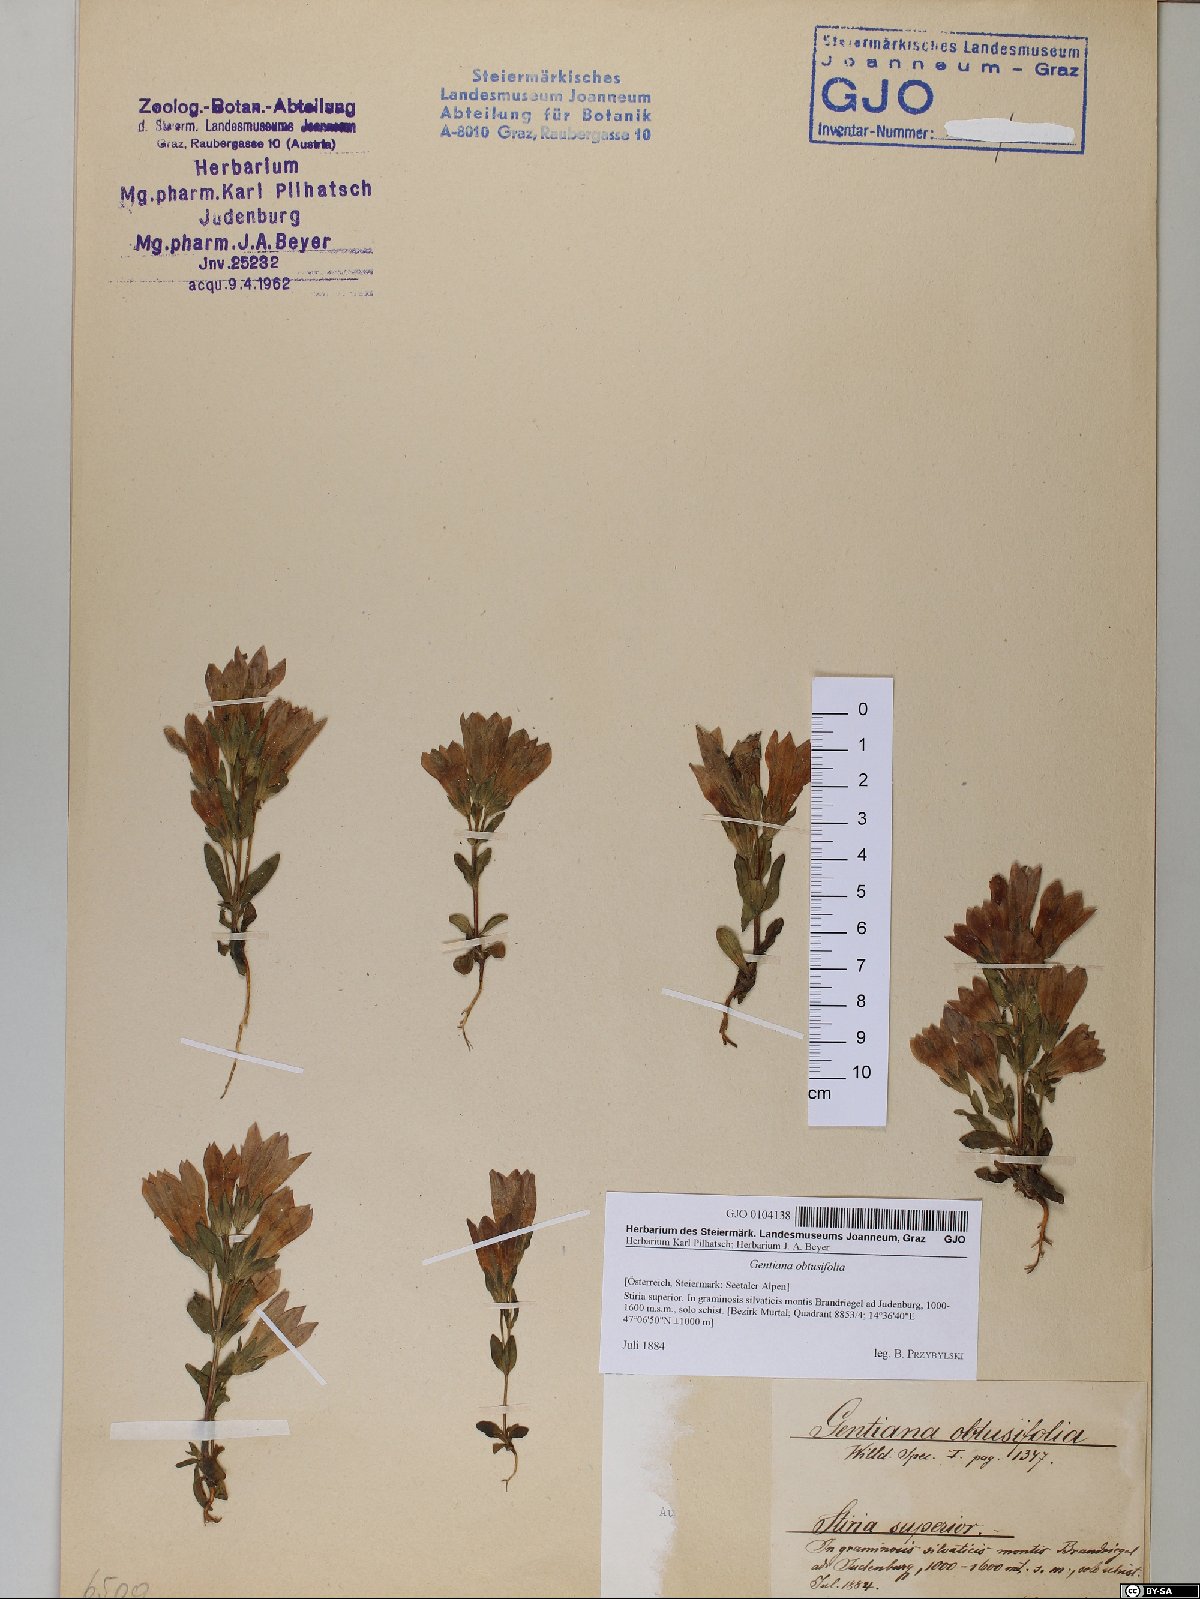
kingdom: Plantae
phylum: Tracheophyta
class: Magnoliopsida
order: Gentianales
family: Gentianaceae
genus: Gentianella
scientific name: Gentianella obtusifolia
